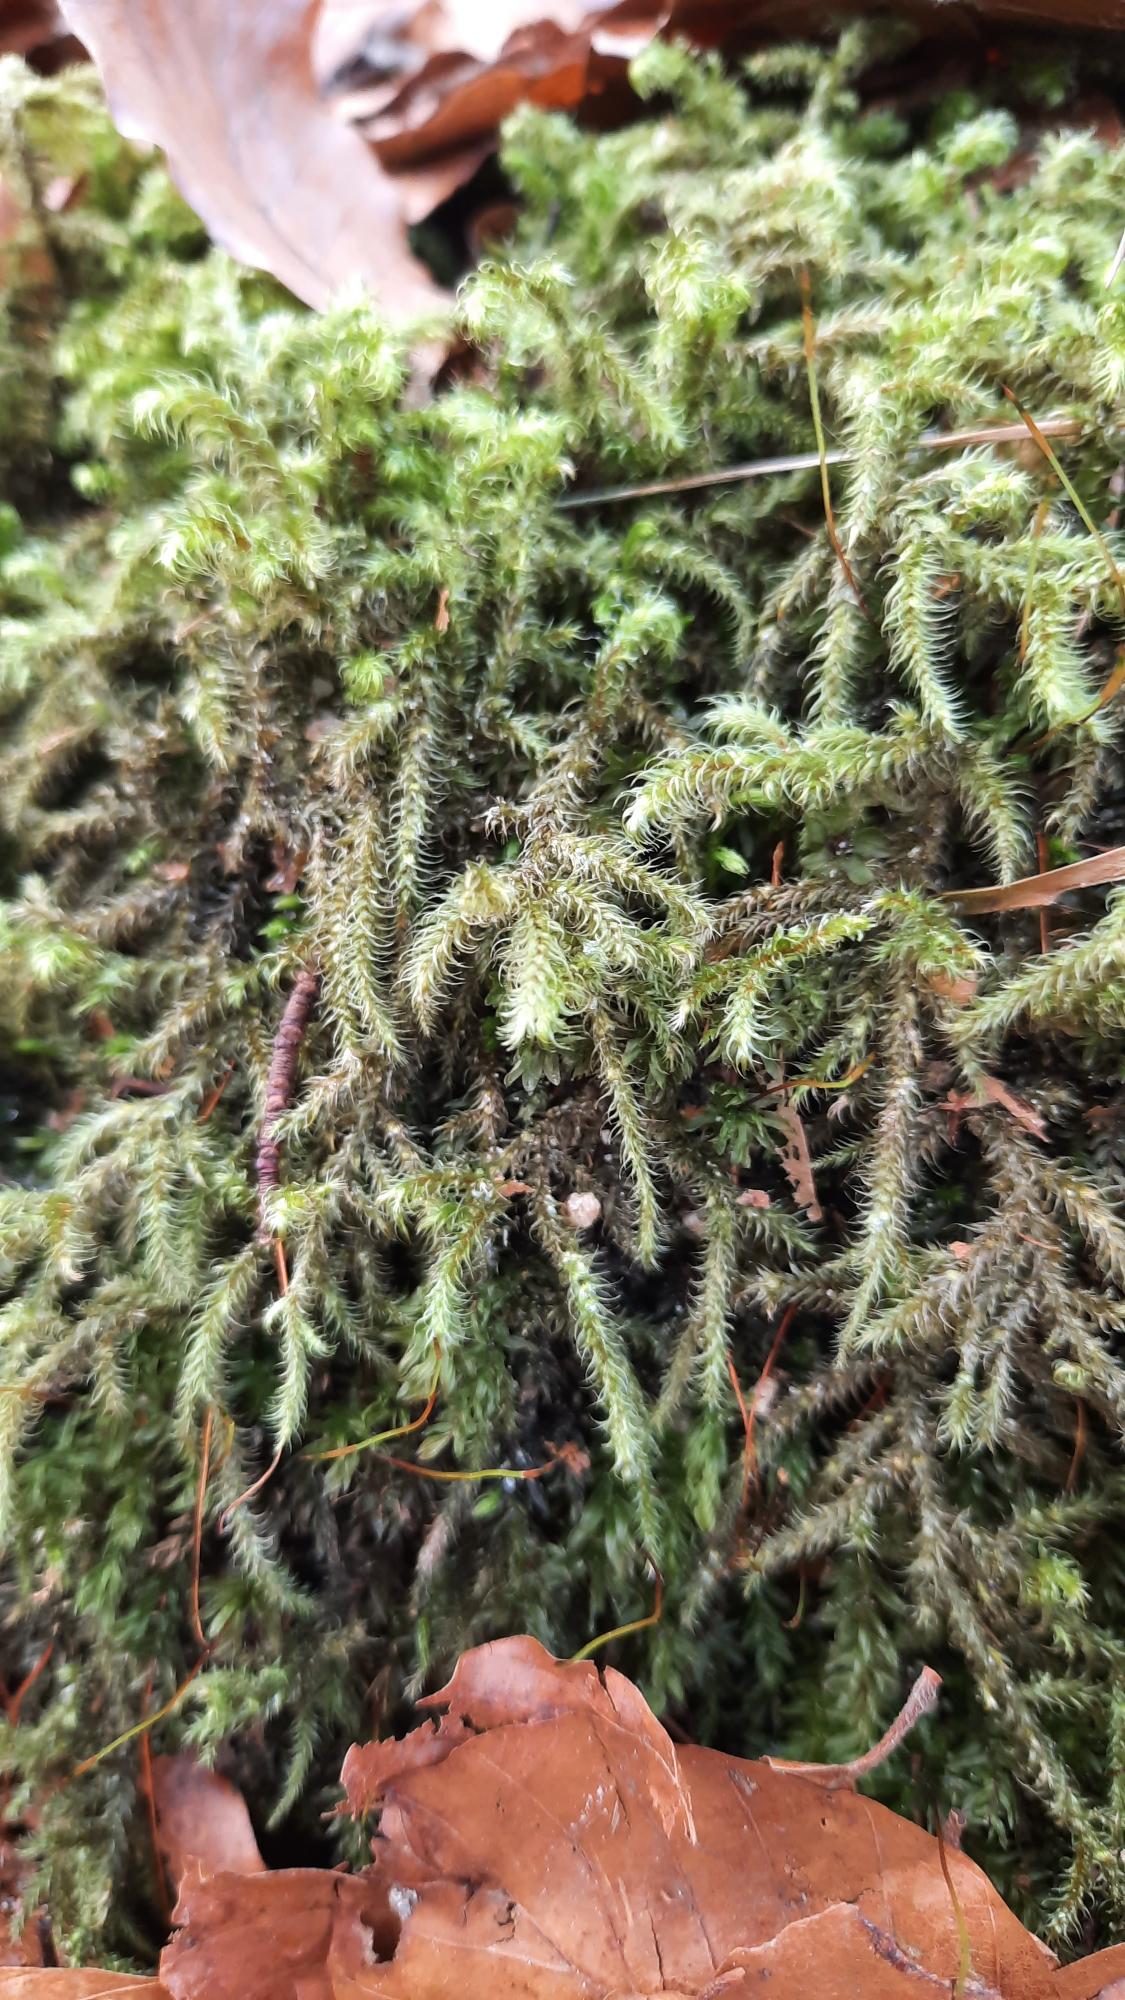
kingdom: Plantae
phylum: Bryophyta
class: Bryopsida
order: Hypnales
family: Hylocomiaceae
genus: Rhytidiadelphus
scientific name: Rhytidiadelphus loreus
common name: Ulvefod-kransemos
